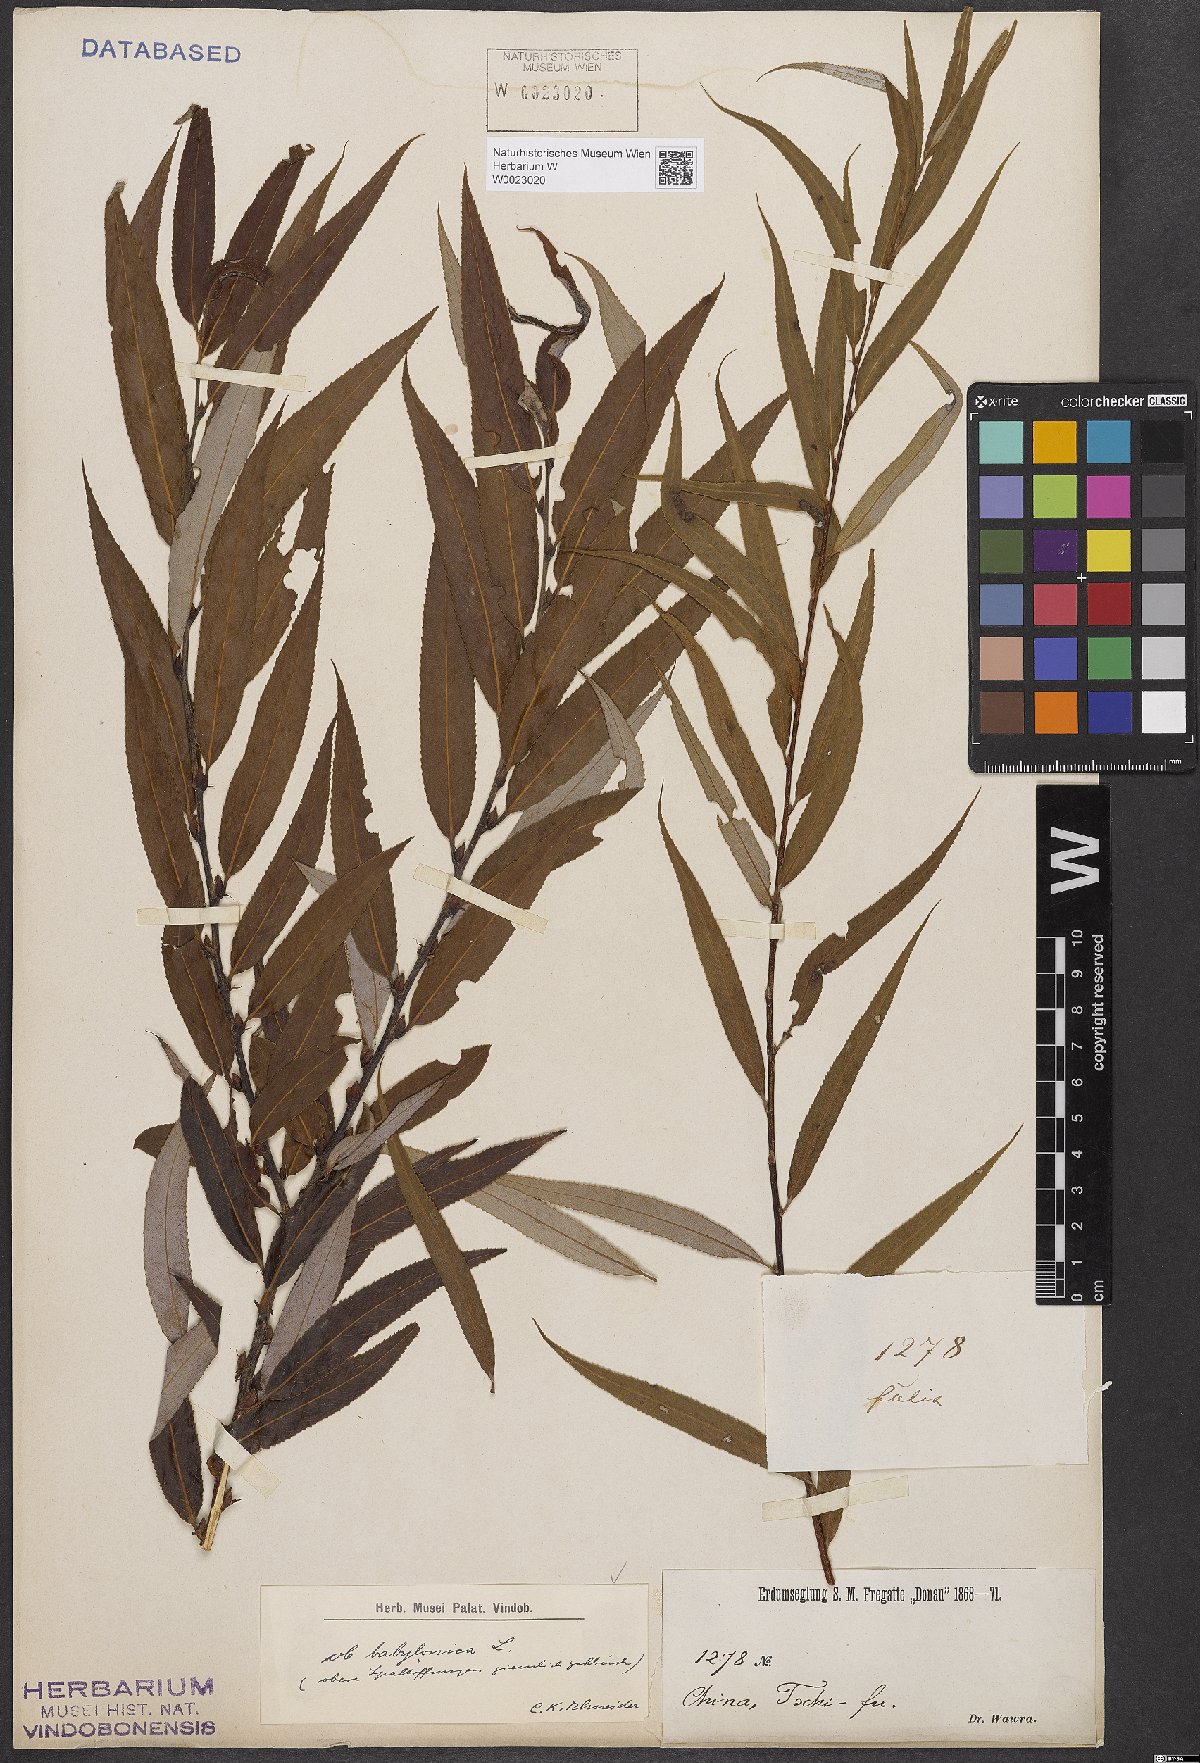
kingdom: Plantae
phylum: Tracheophyta
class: Magnoliopsida
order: Malpighiales
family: Salicaceae
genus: Salix
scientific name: Salix babylonica
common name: Weeping willow
